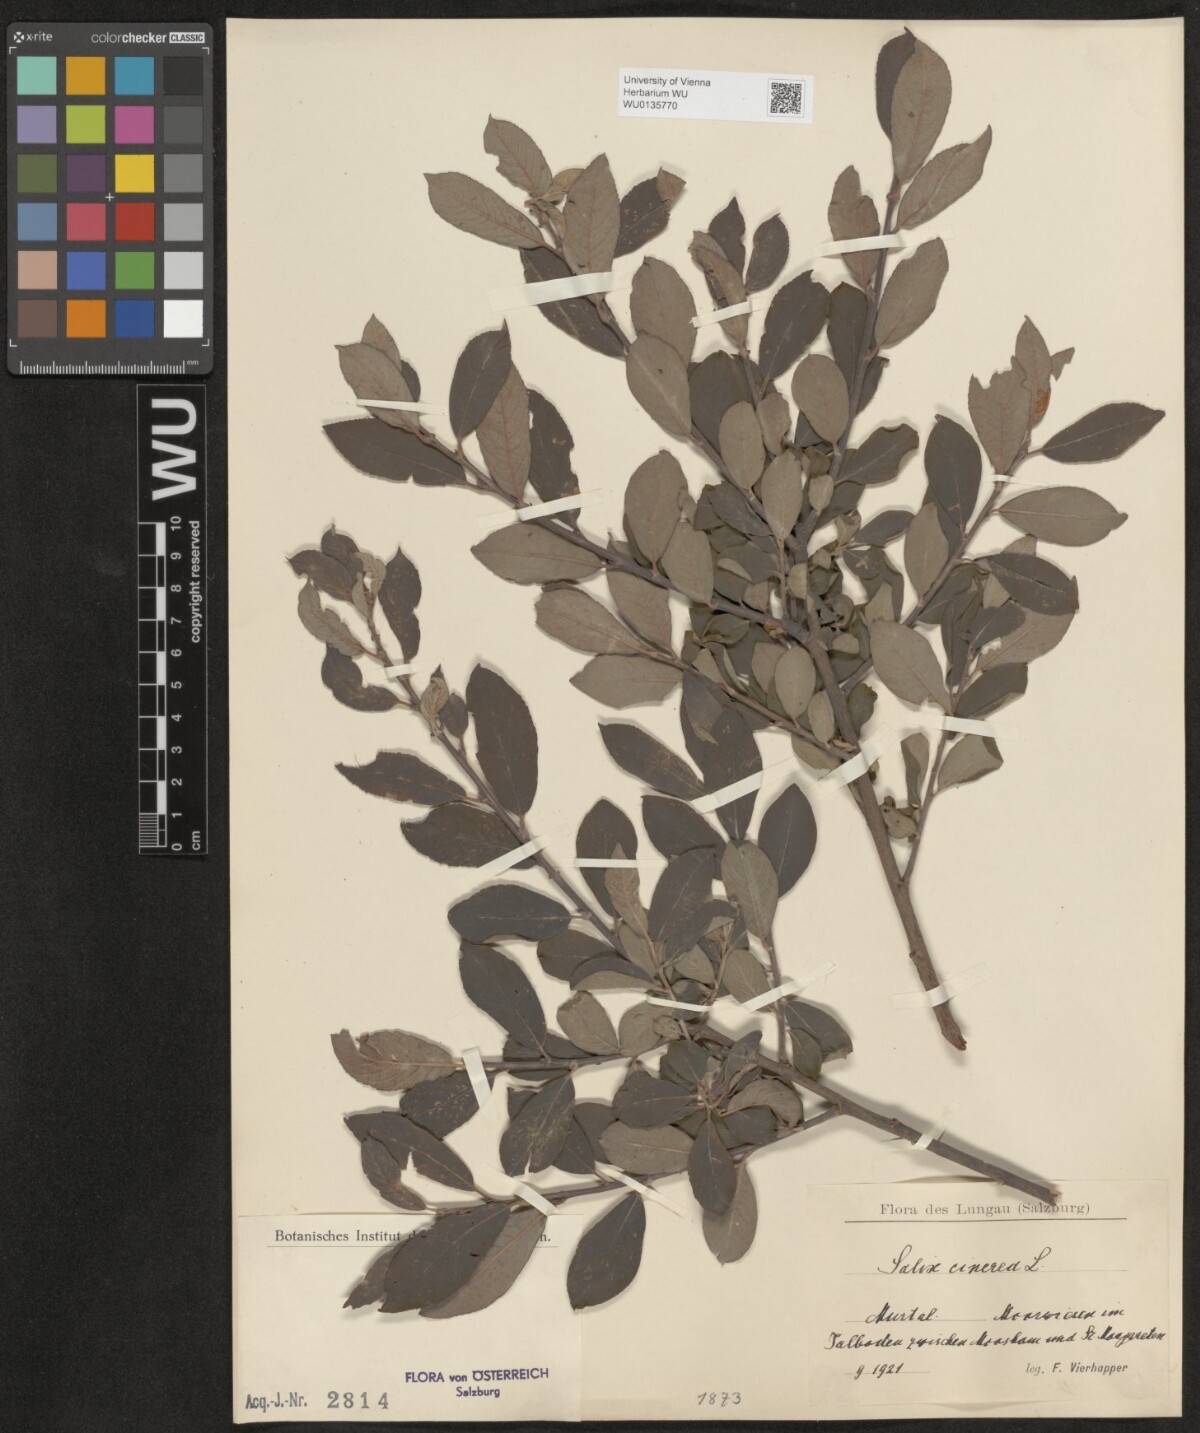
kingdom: Plantae
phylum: Tracheophyta
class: Magnoliopsida
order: Malpighiales
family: Salicaceae
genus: Salix
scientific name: Salix cinerea
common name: Common sallow
